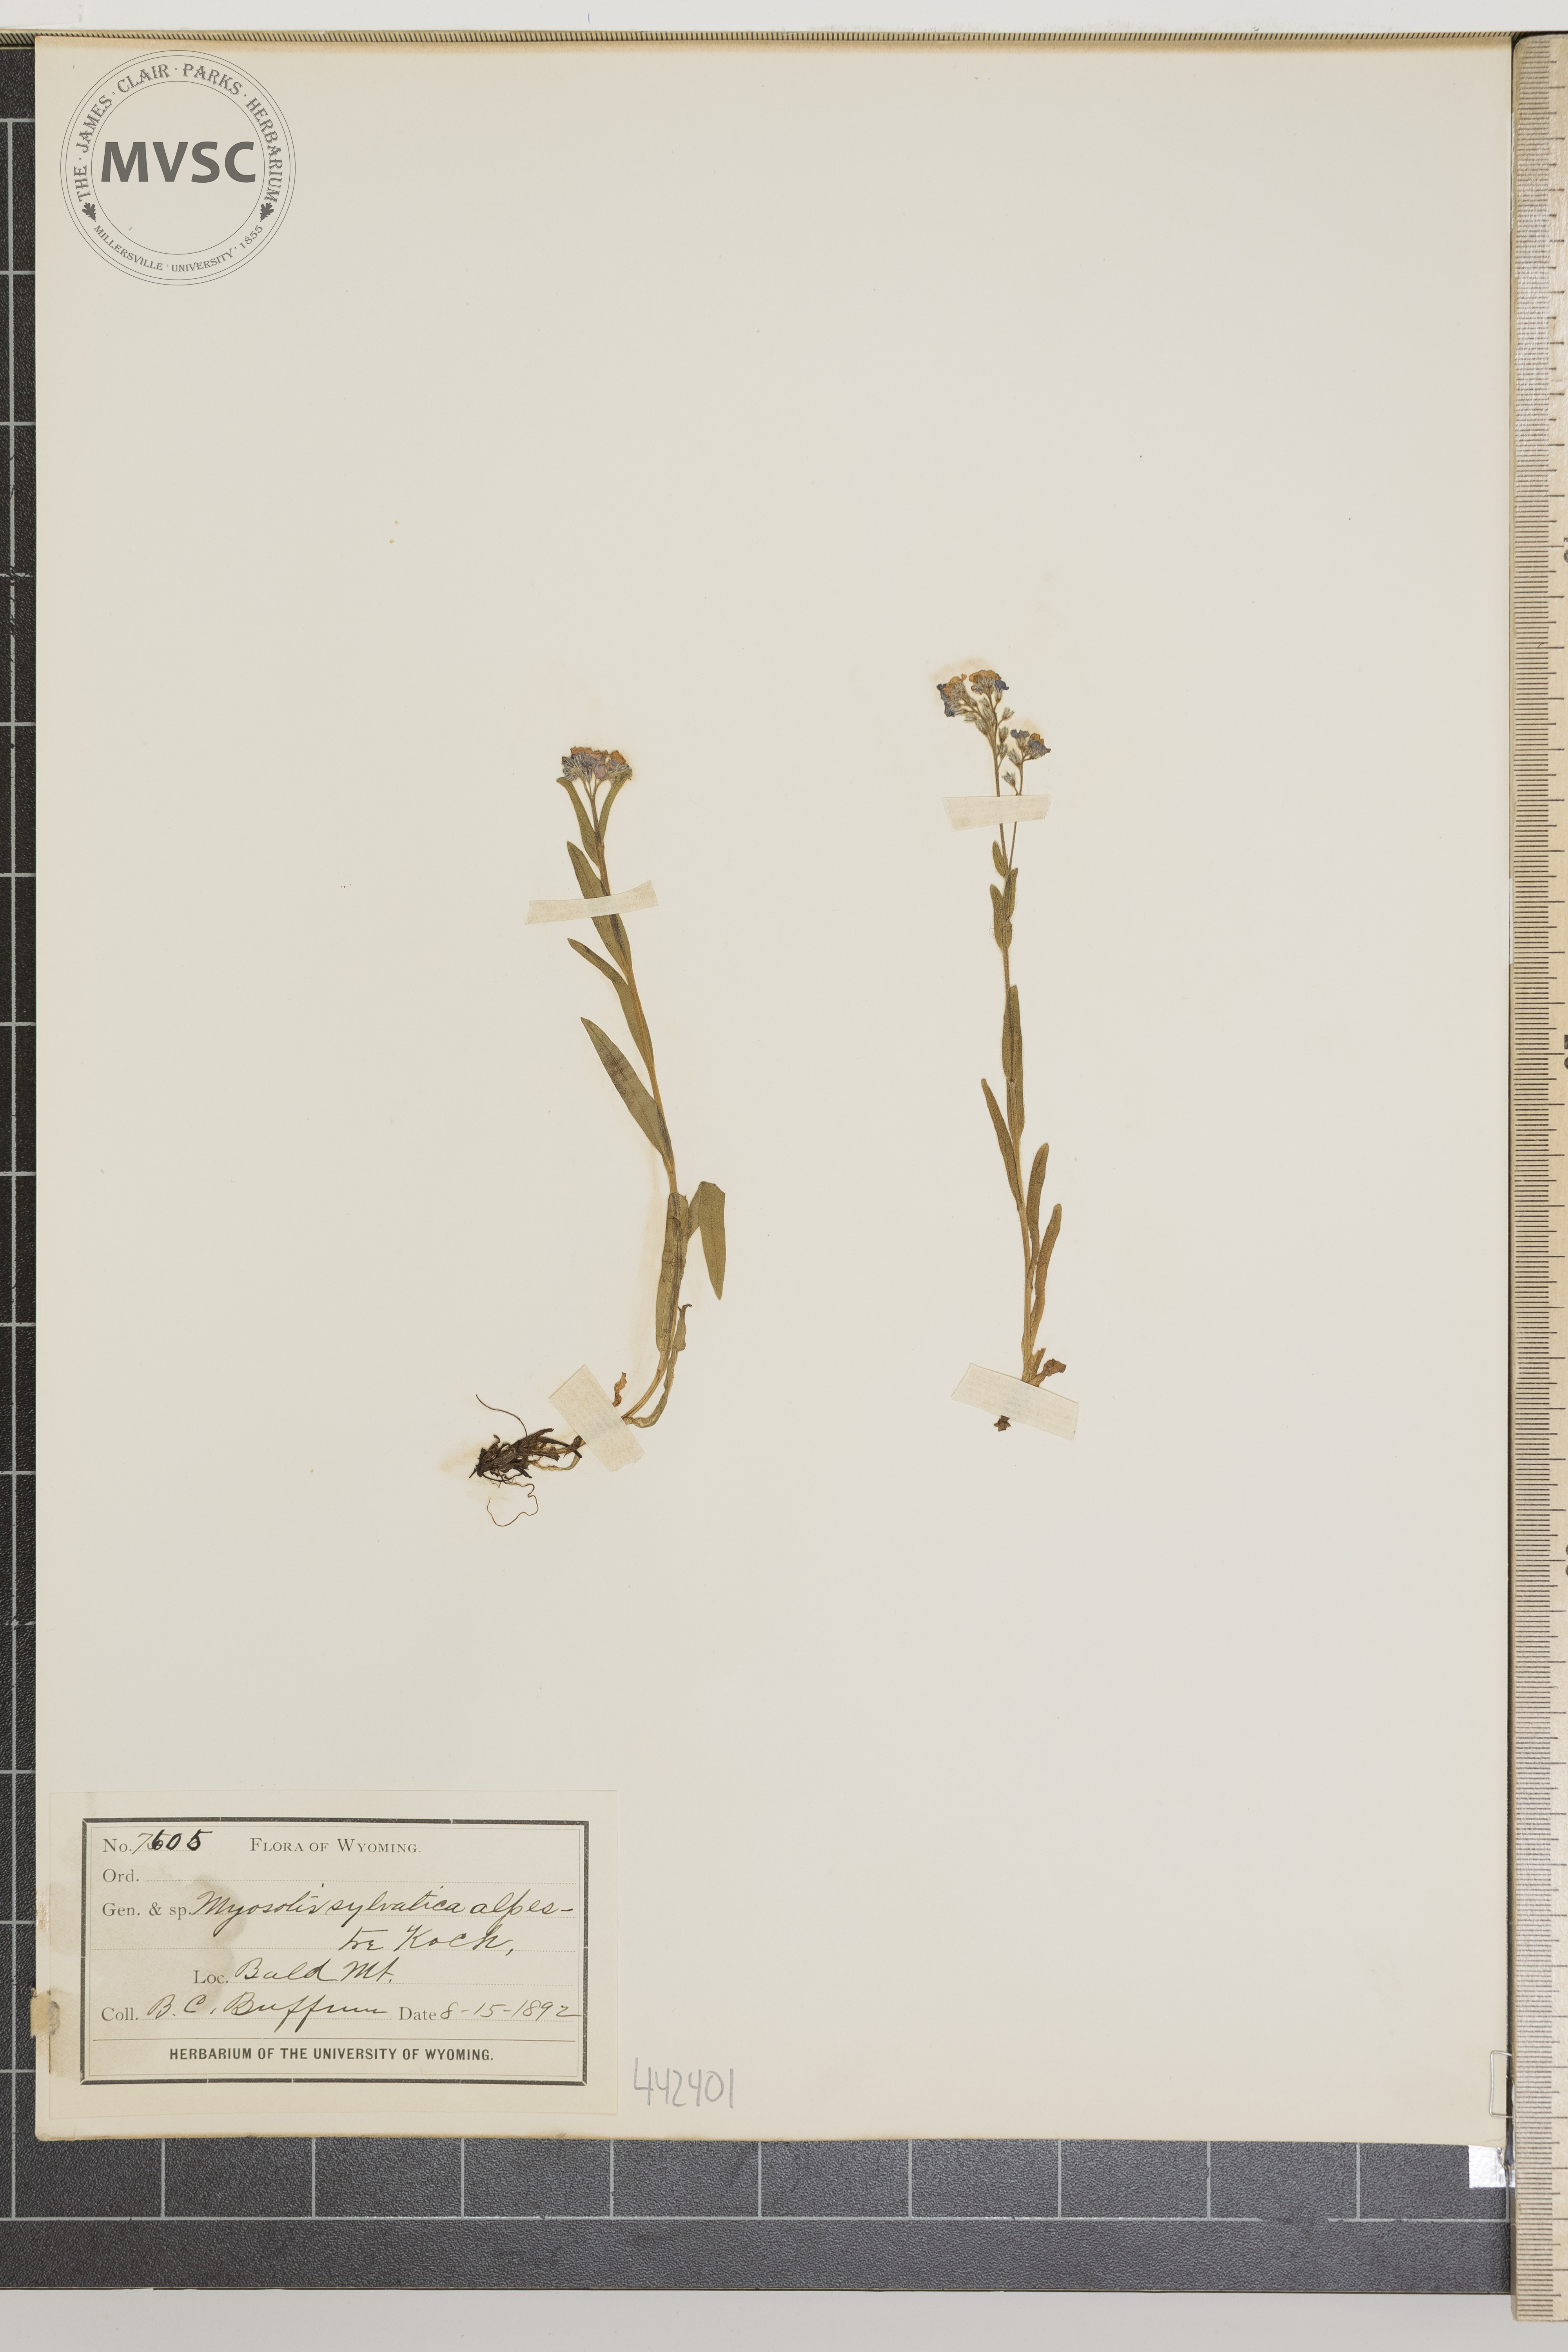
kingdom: Plantae
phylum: Tracheophyta
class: Magnoliopsida
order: Boraginales
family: Boraginaceae
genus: Myosotis
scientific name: Myosotis sylvatica
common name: Wood forget-me-not
